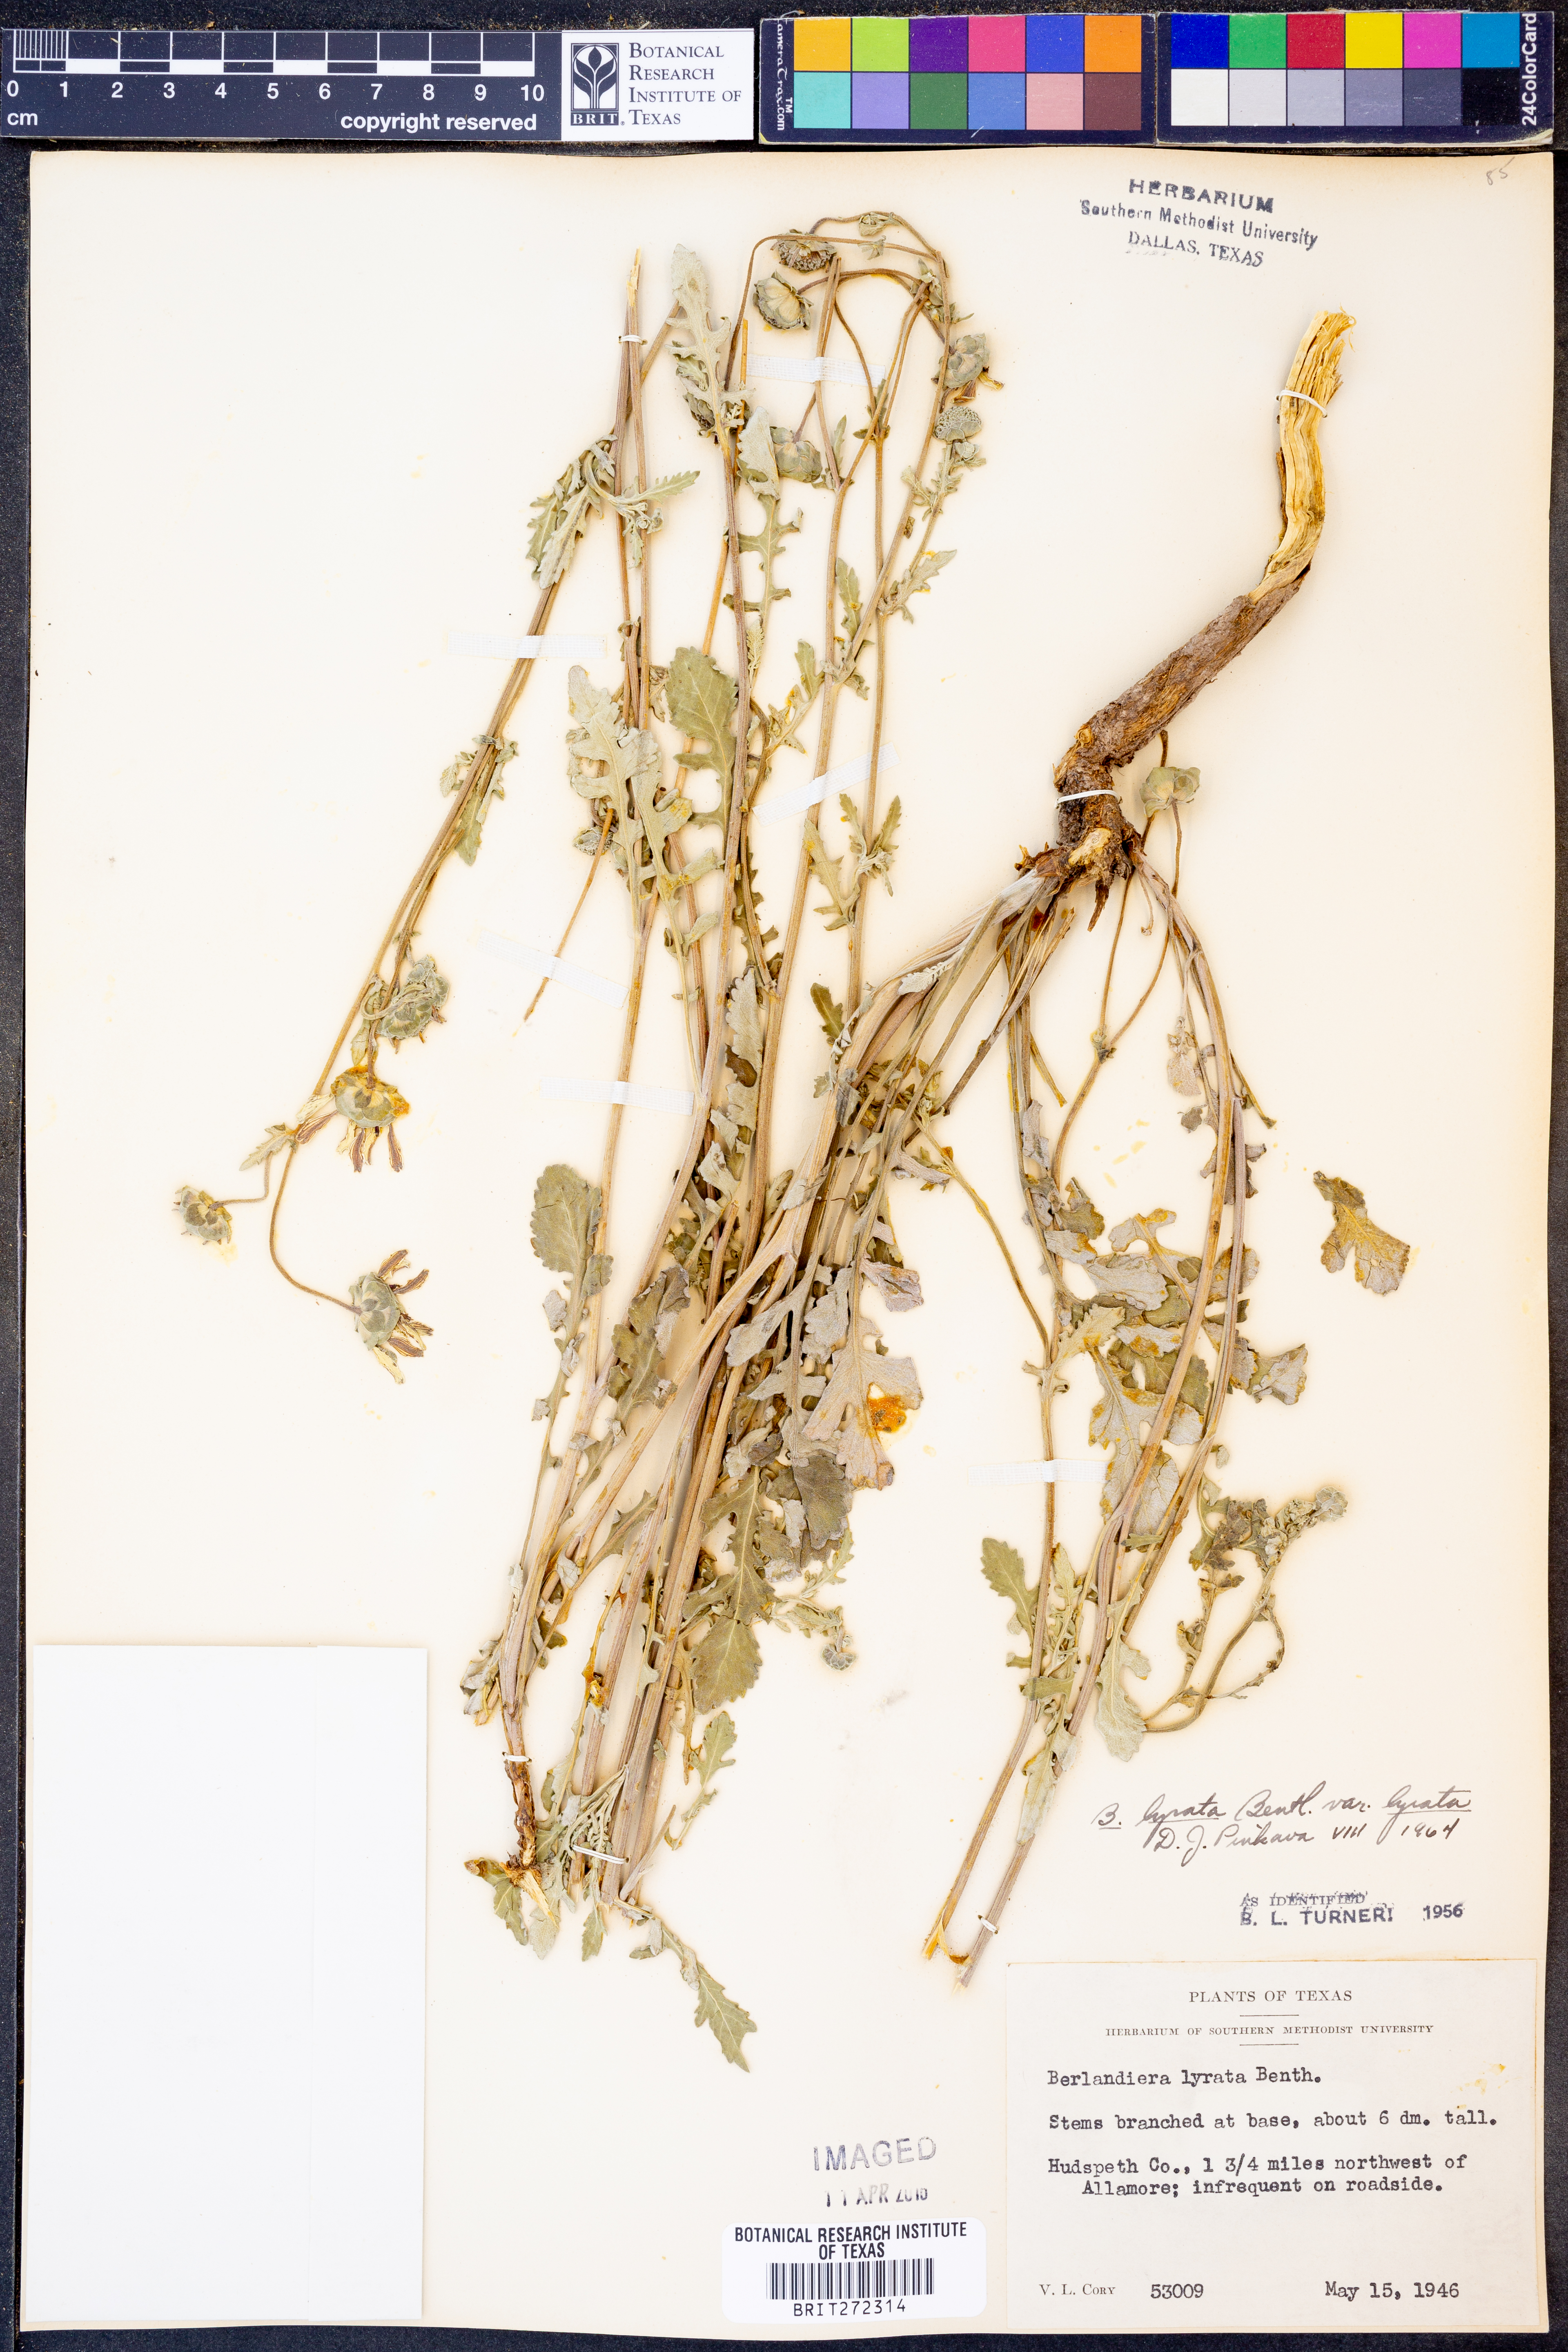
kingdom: Plantae
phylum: Tracheophyta
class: Magnoliopsida
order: Asterales
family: Asteraceae
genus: Berlandiera
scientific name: Berlandiera lyrata
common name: Chocolate-flower
